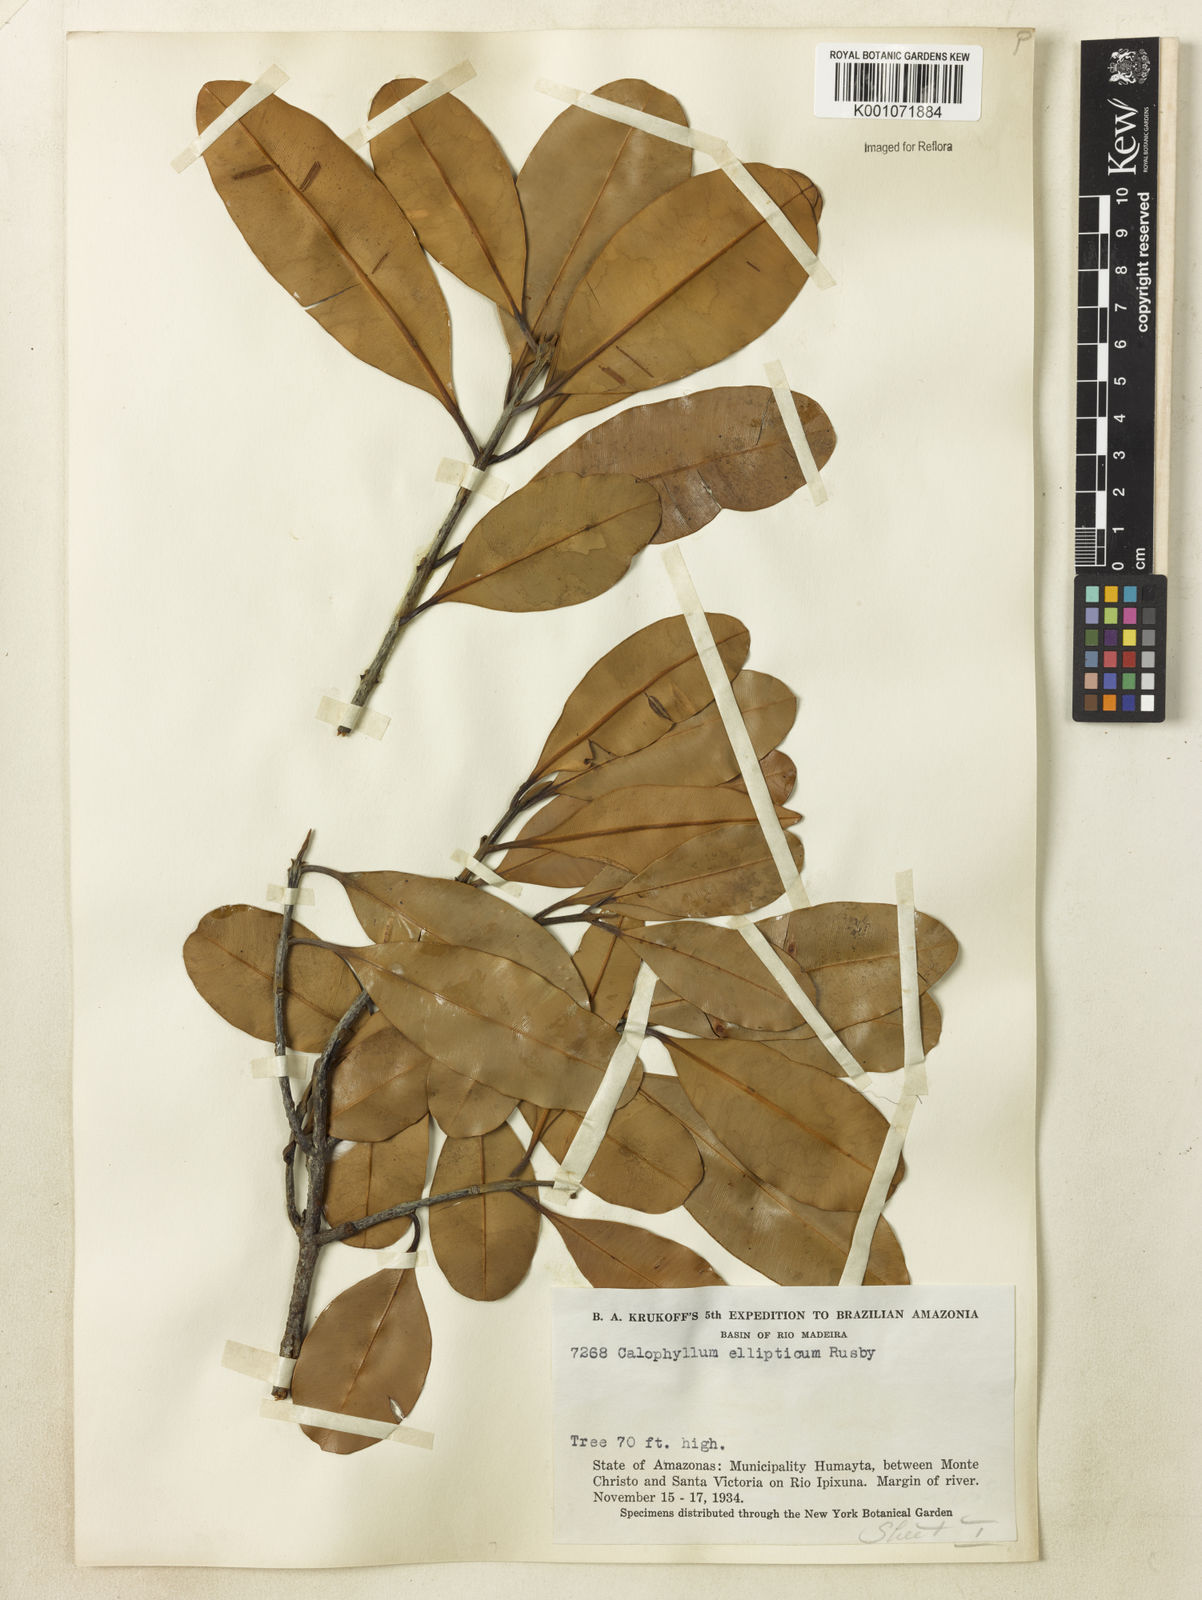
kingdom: Plantae
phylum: Tracheophyta
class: Magnoliopsida
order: Malpighiales
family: Calophyllaceae
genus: Calophyllum
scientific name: Calophyllum brasiliense
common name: Santa maria
